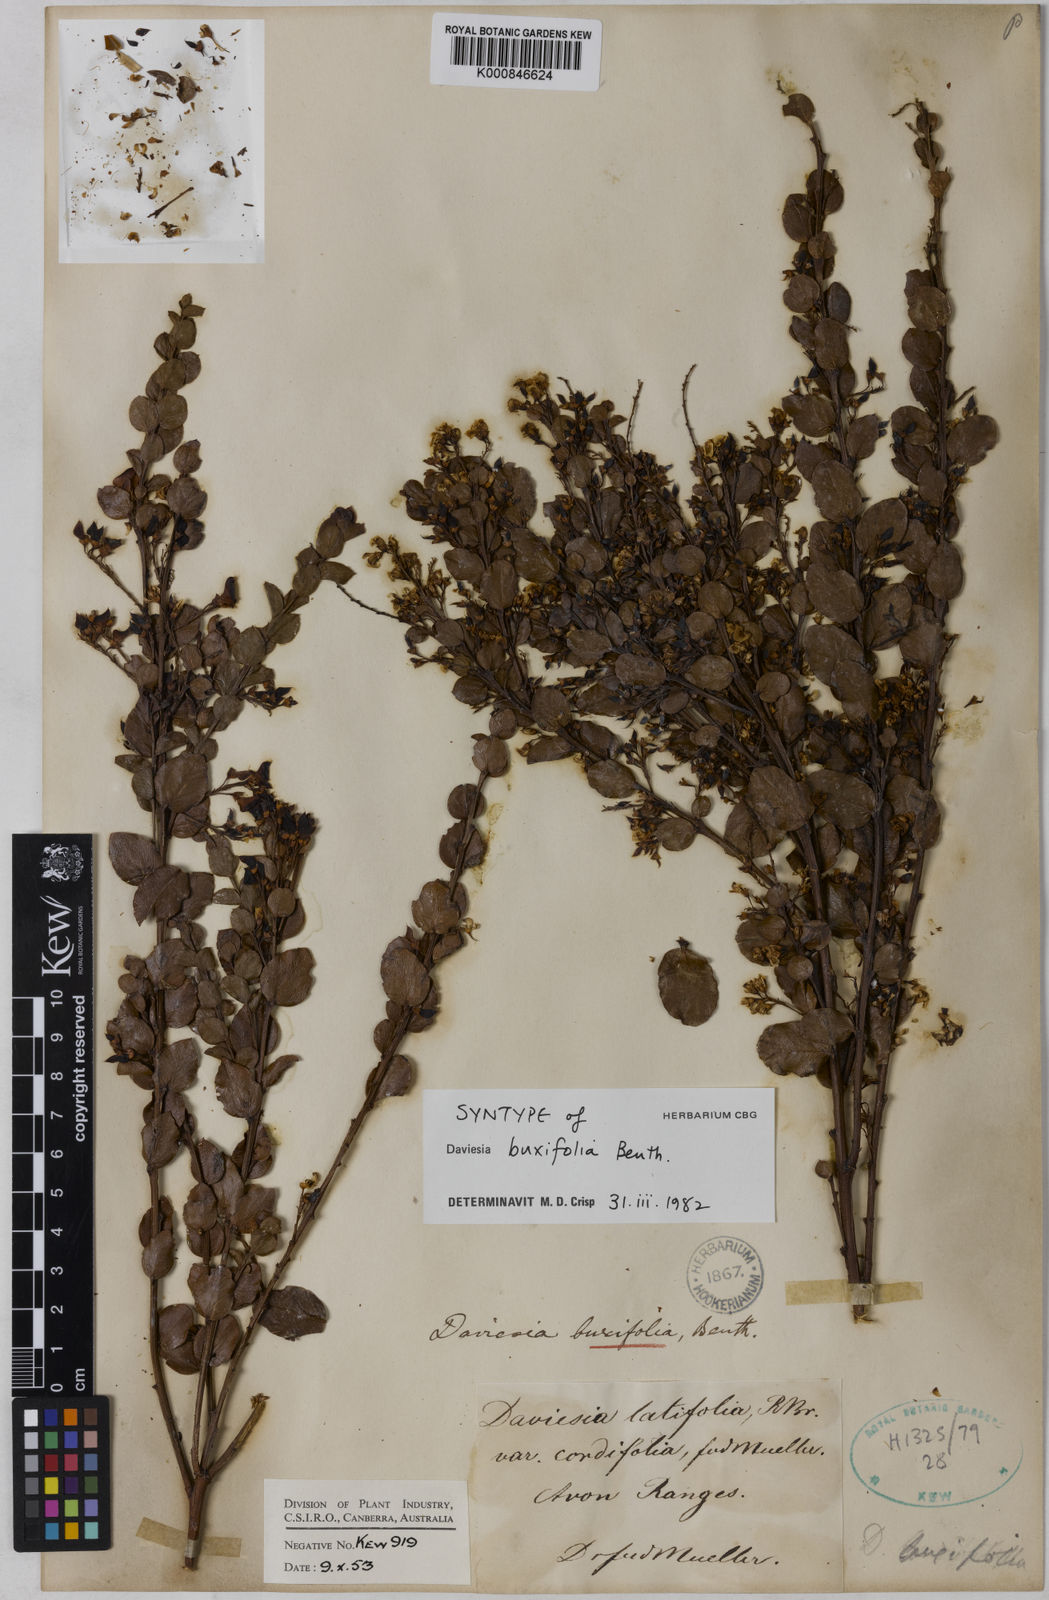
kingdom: Plantae
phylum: Tracheophyta
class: Magnoliopsida
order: Fabales
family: Fabaceae
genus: Daviesia
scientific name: Daviesia mimosoides
